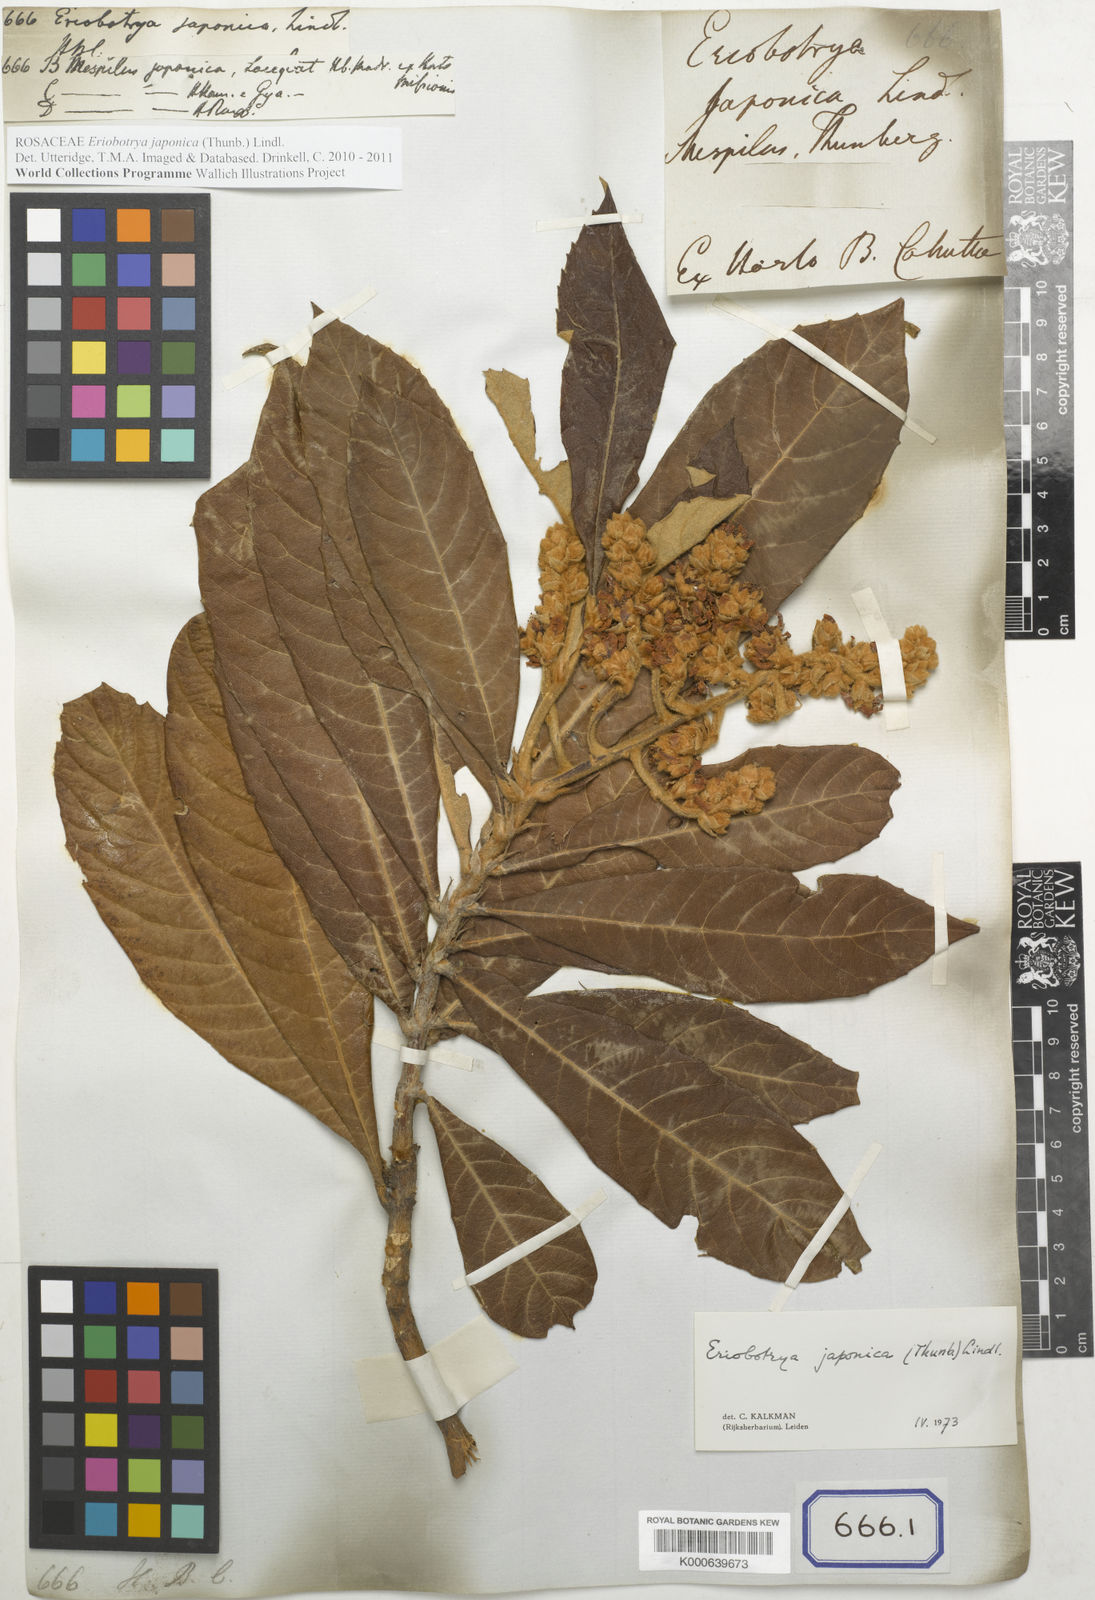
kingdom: Plantae
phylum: Tracheophyta
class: Magnoliopsida
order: Rosales
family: Rosaceae
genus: Rhaphiolepis
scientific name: Rhaphiolepis bibas
